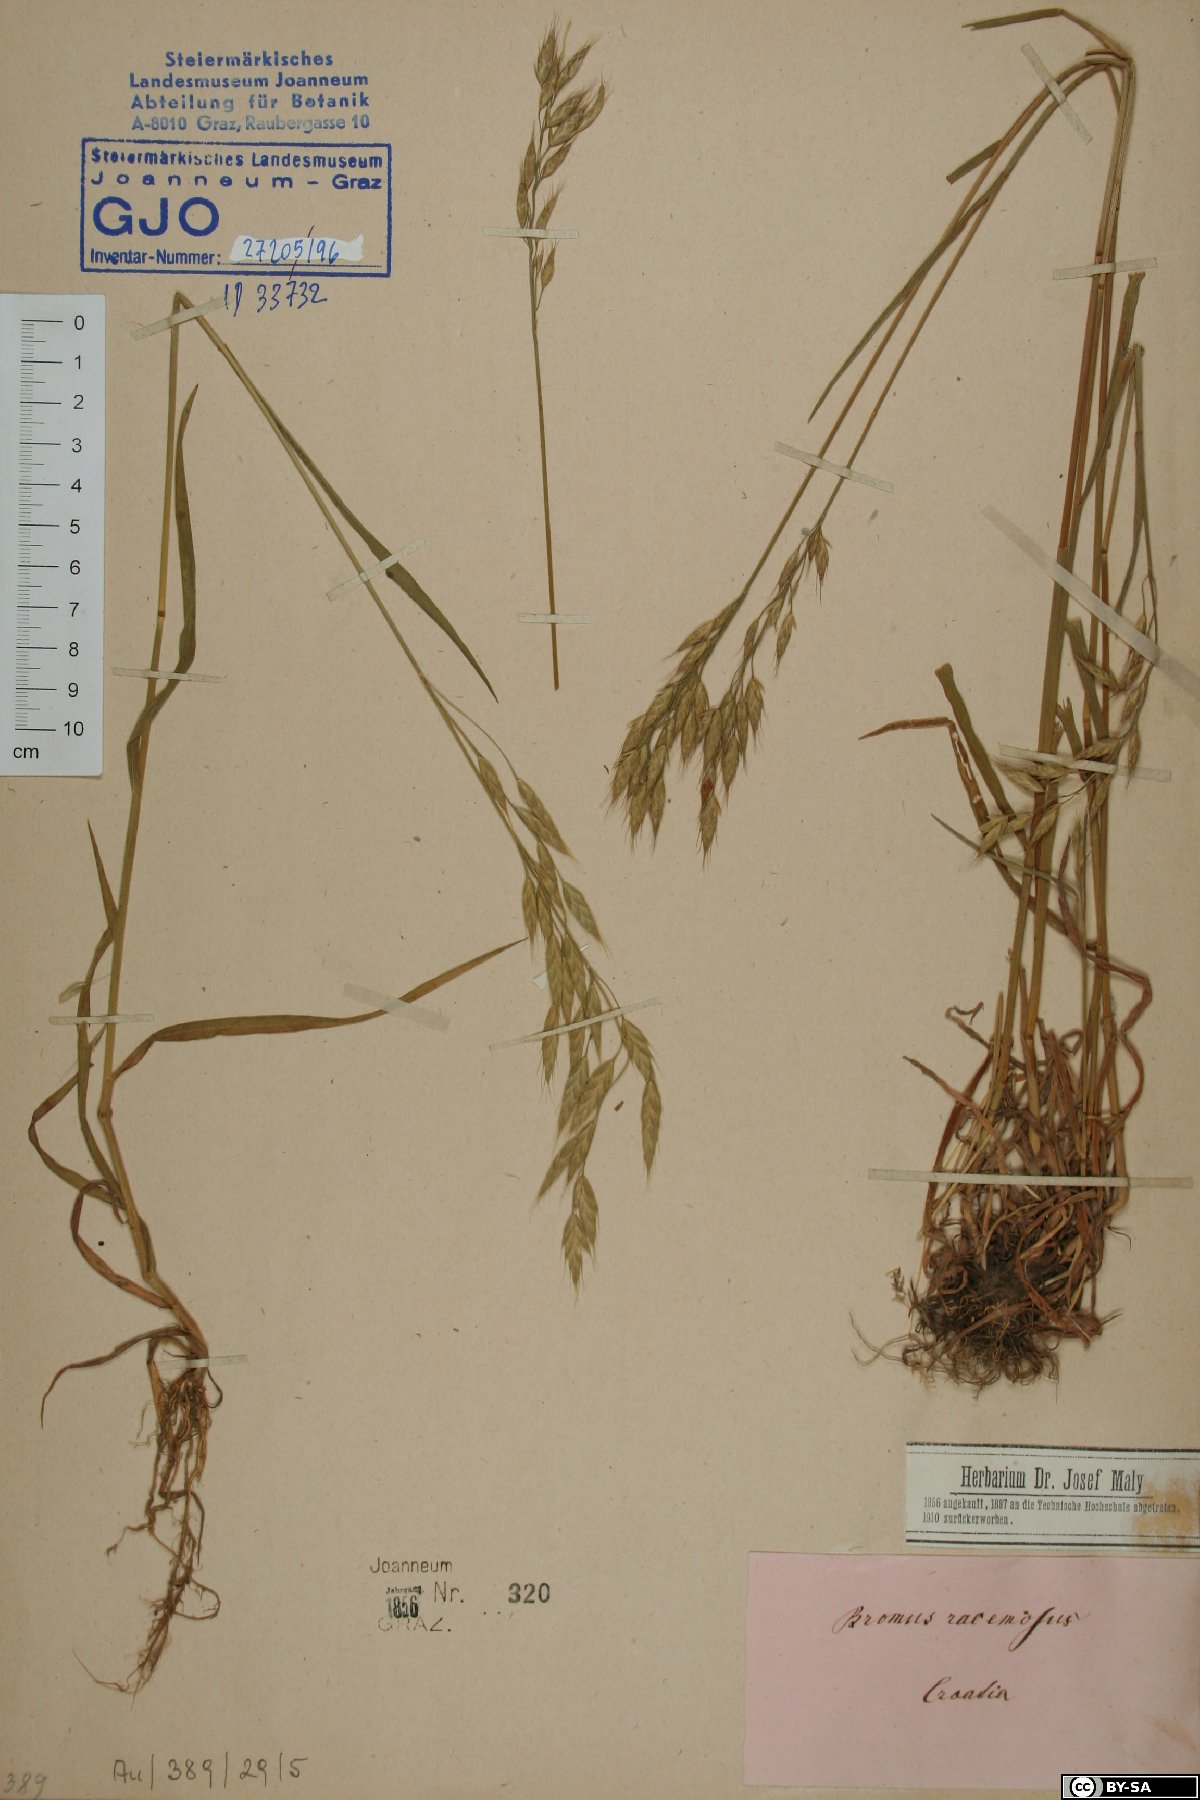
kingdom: Plantae
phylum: Tracheophyta
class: Liliopsida
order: Poales
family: Poaceae
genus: Bromus
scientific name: Bromus racemosus
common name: Bald brome
